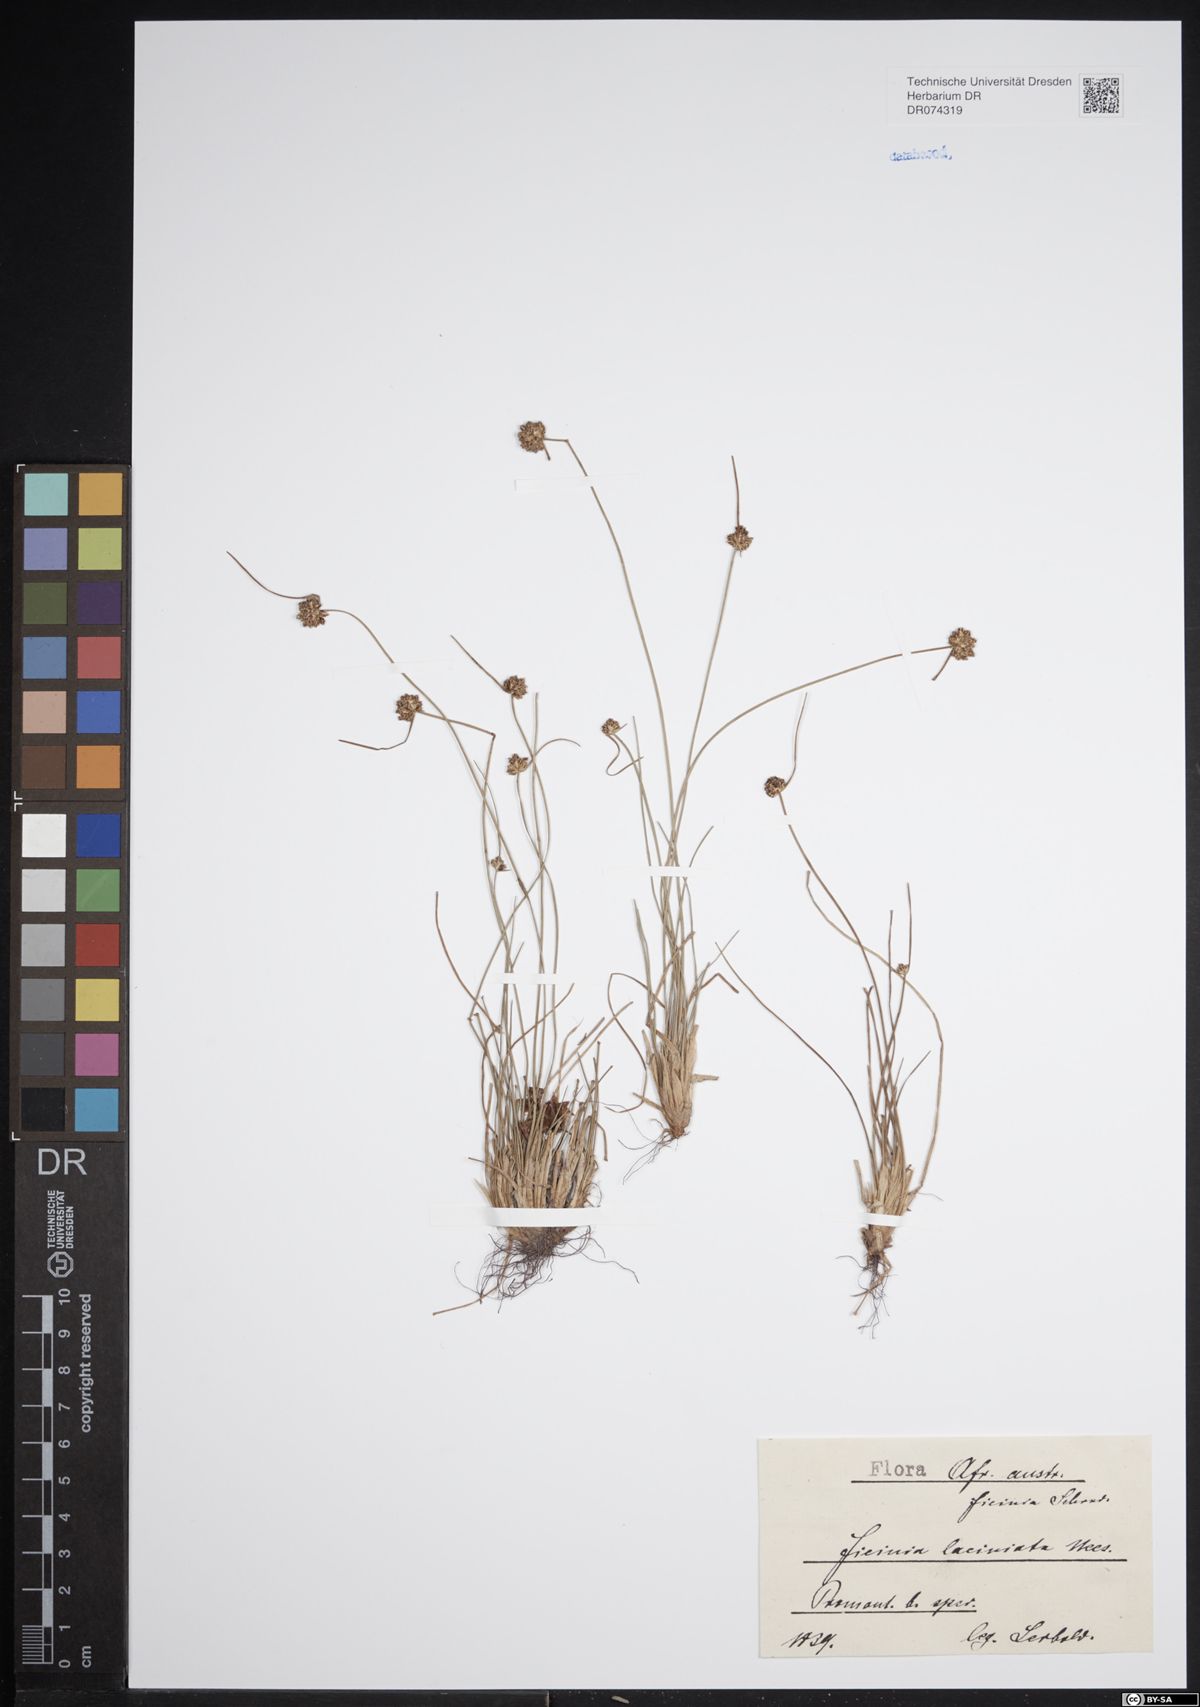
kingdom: Plantae
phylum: Tracheophyta
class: Liliopsida
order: Poales
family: Cyperaceae
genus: Ficinia
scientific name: Ficinia laciniata
